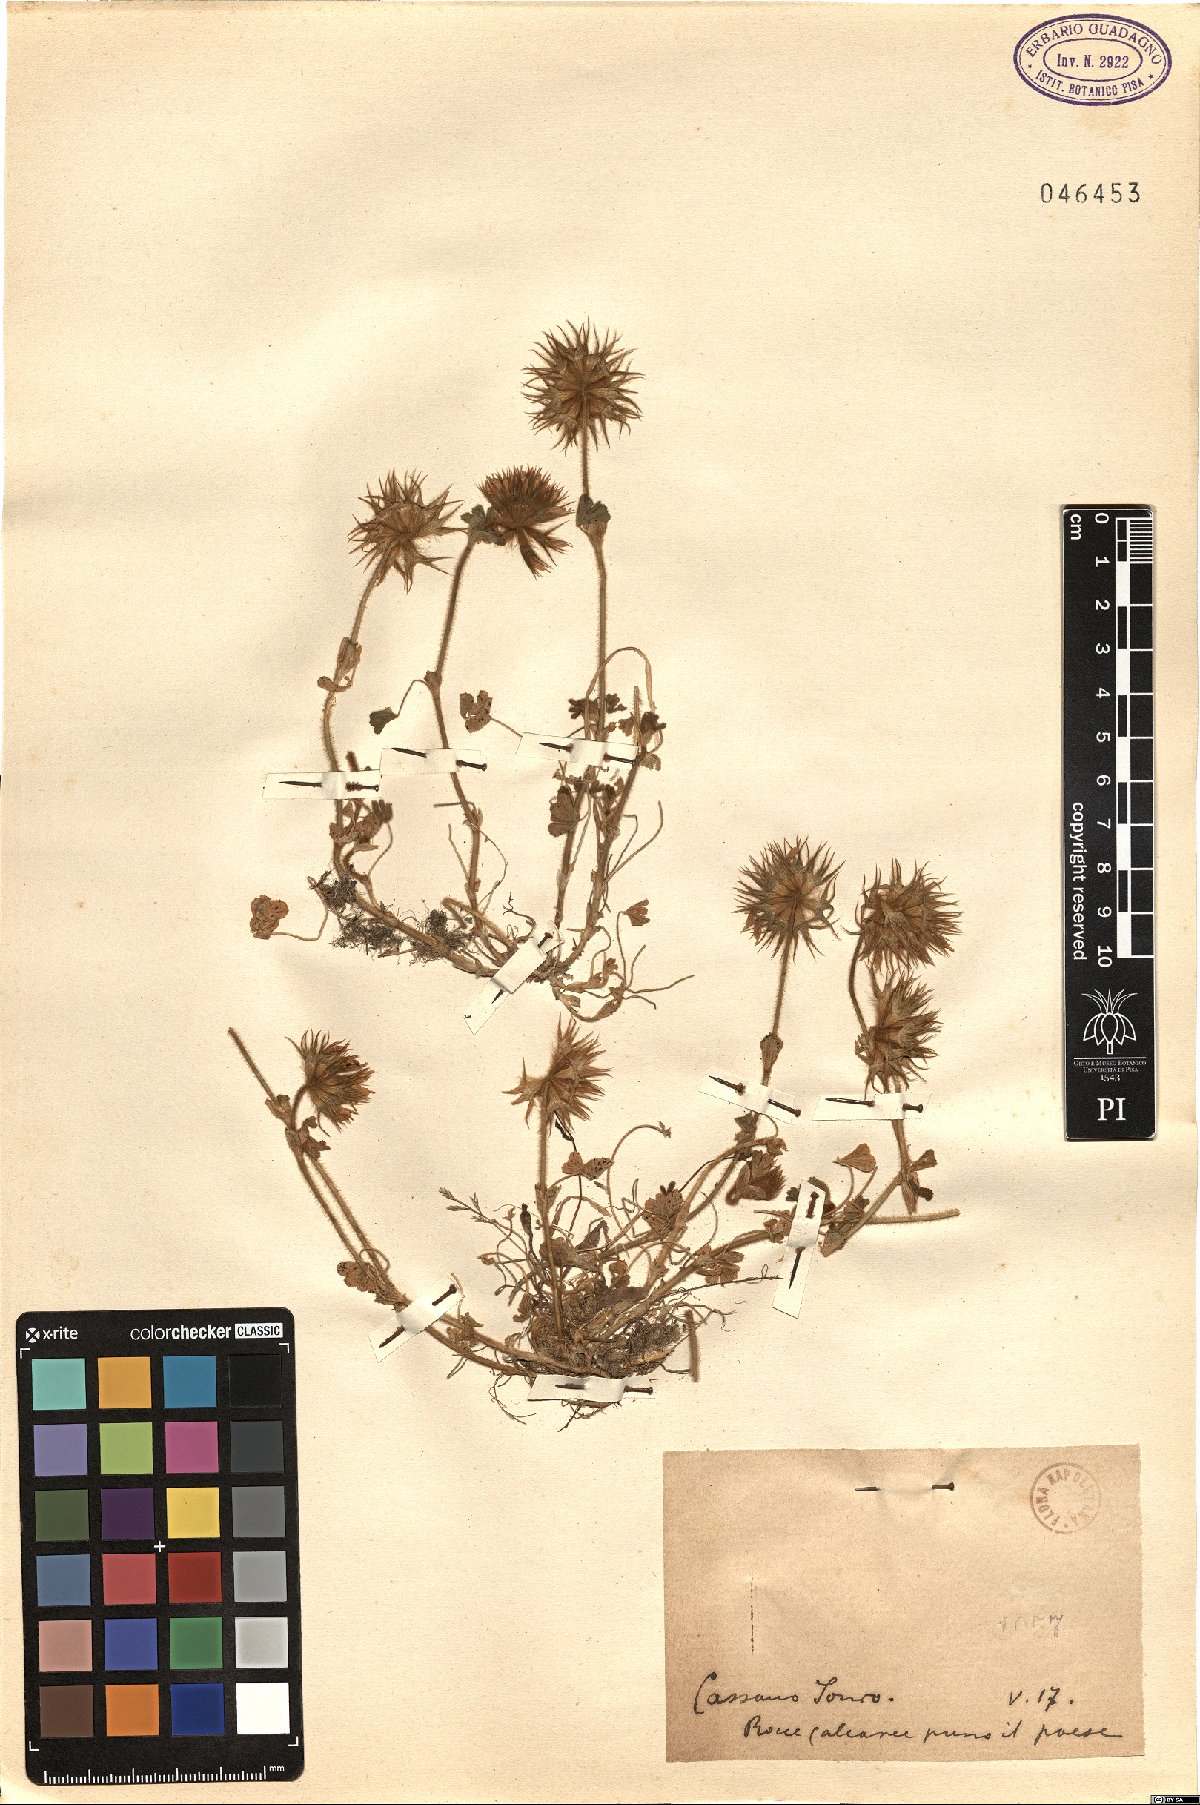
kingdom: Plantae
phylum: Tracheophyta
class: Magnoliopsida
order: Fabales
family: Fabaceae
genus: Trifolium
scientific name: Trifolium
